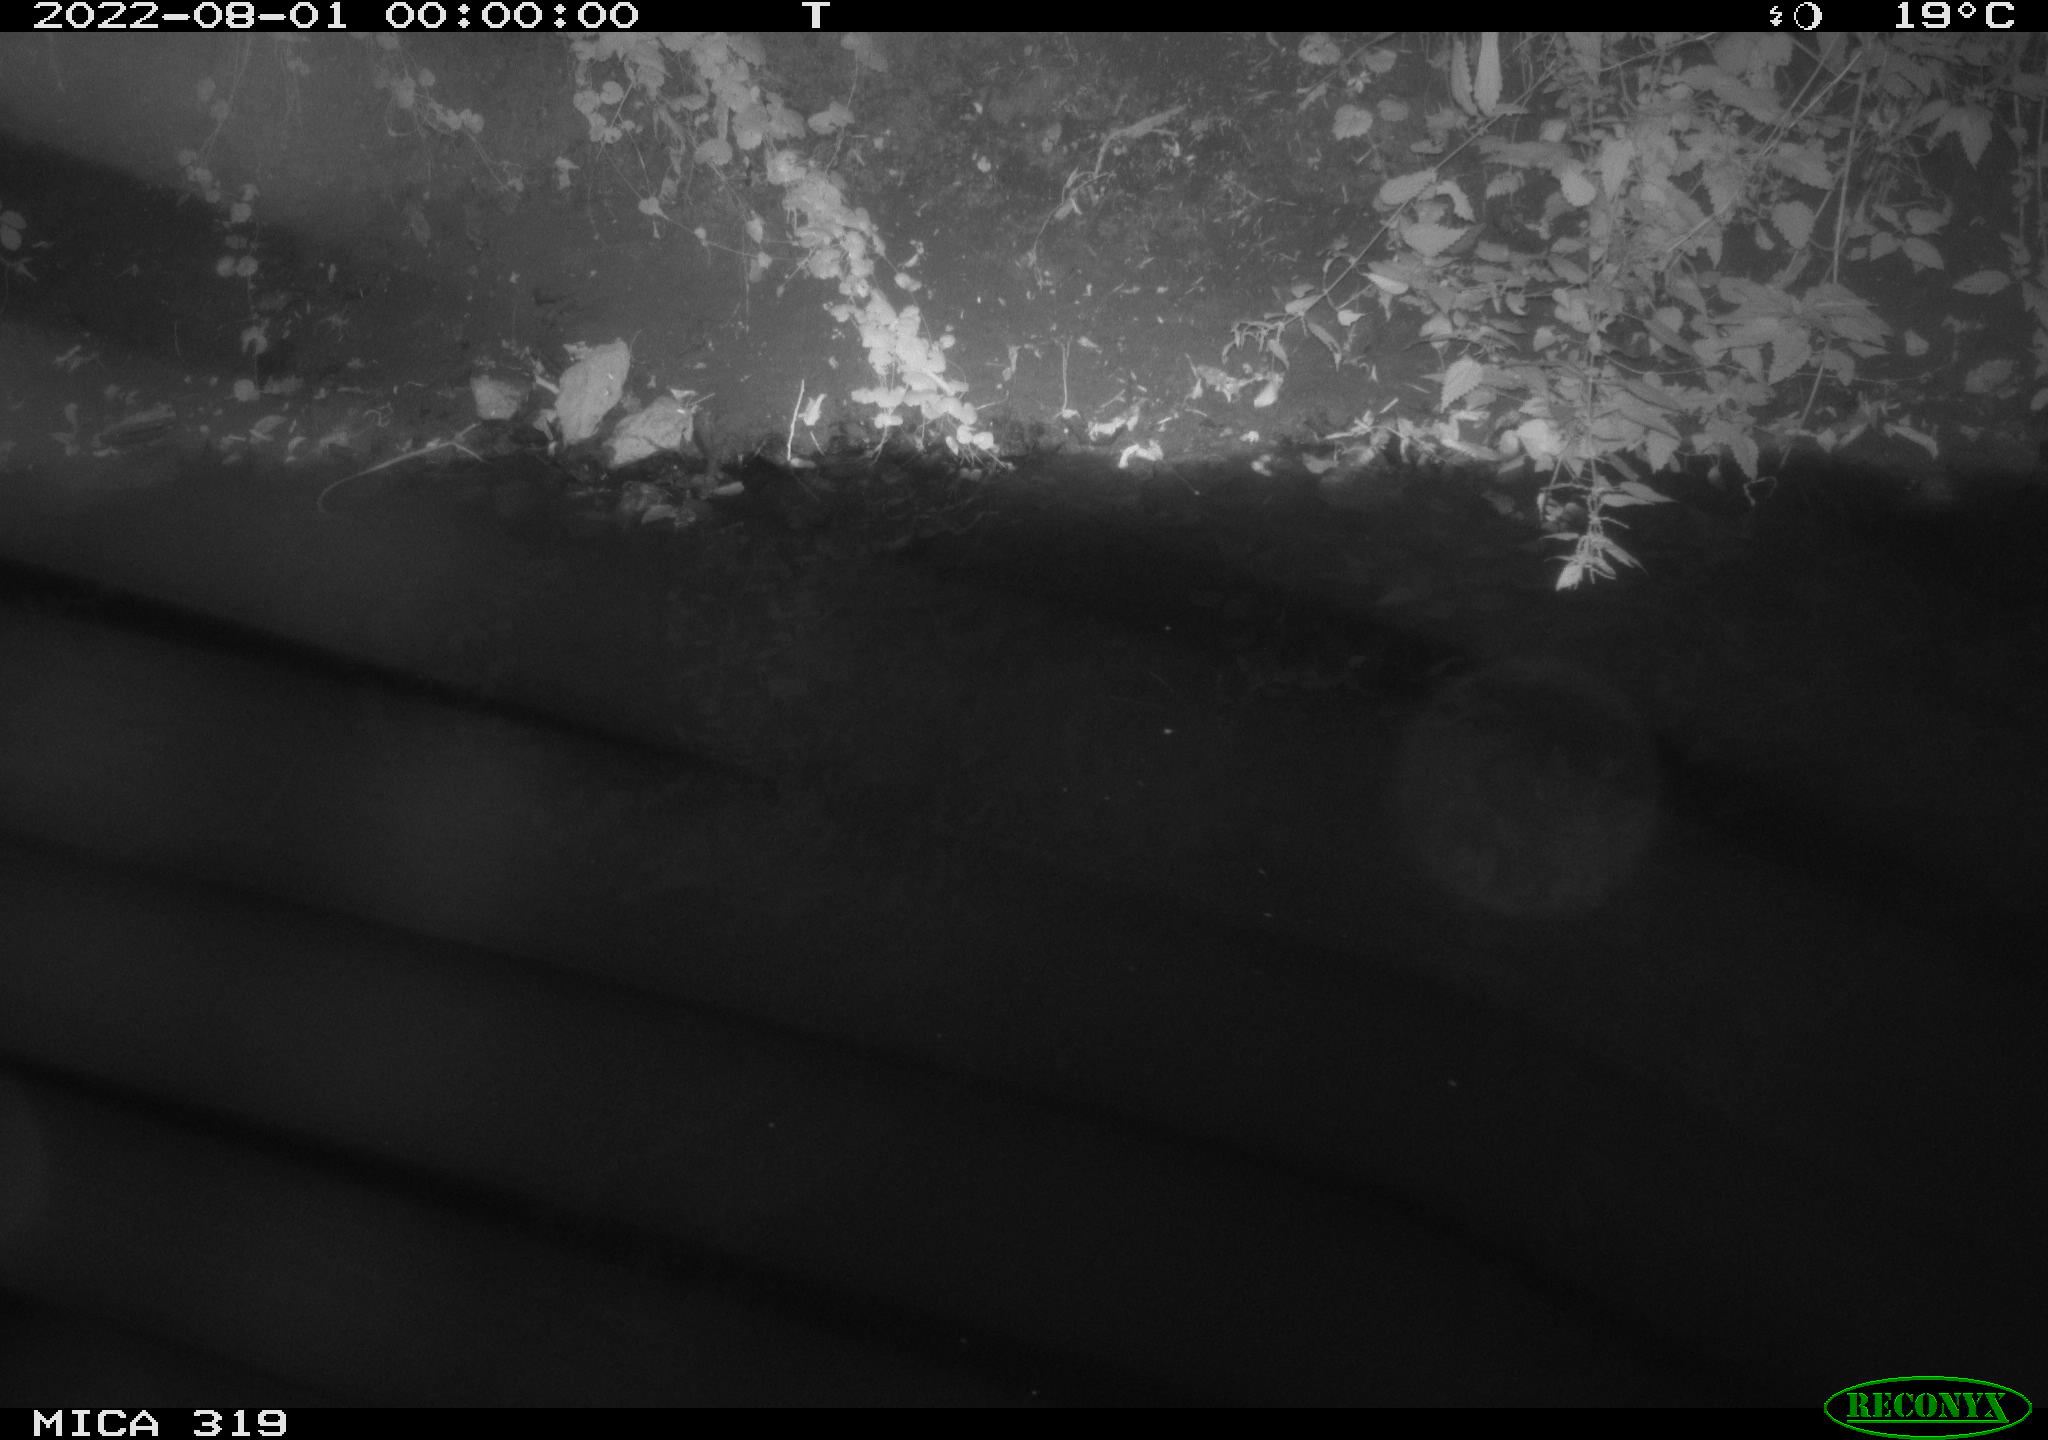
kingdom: Animalia
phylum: Chordata
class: Mammalia
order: Rodentia
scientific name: Rodentia
